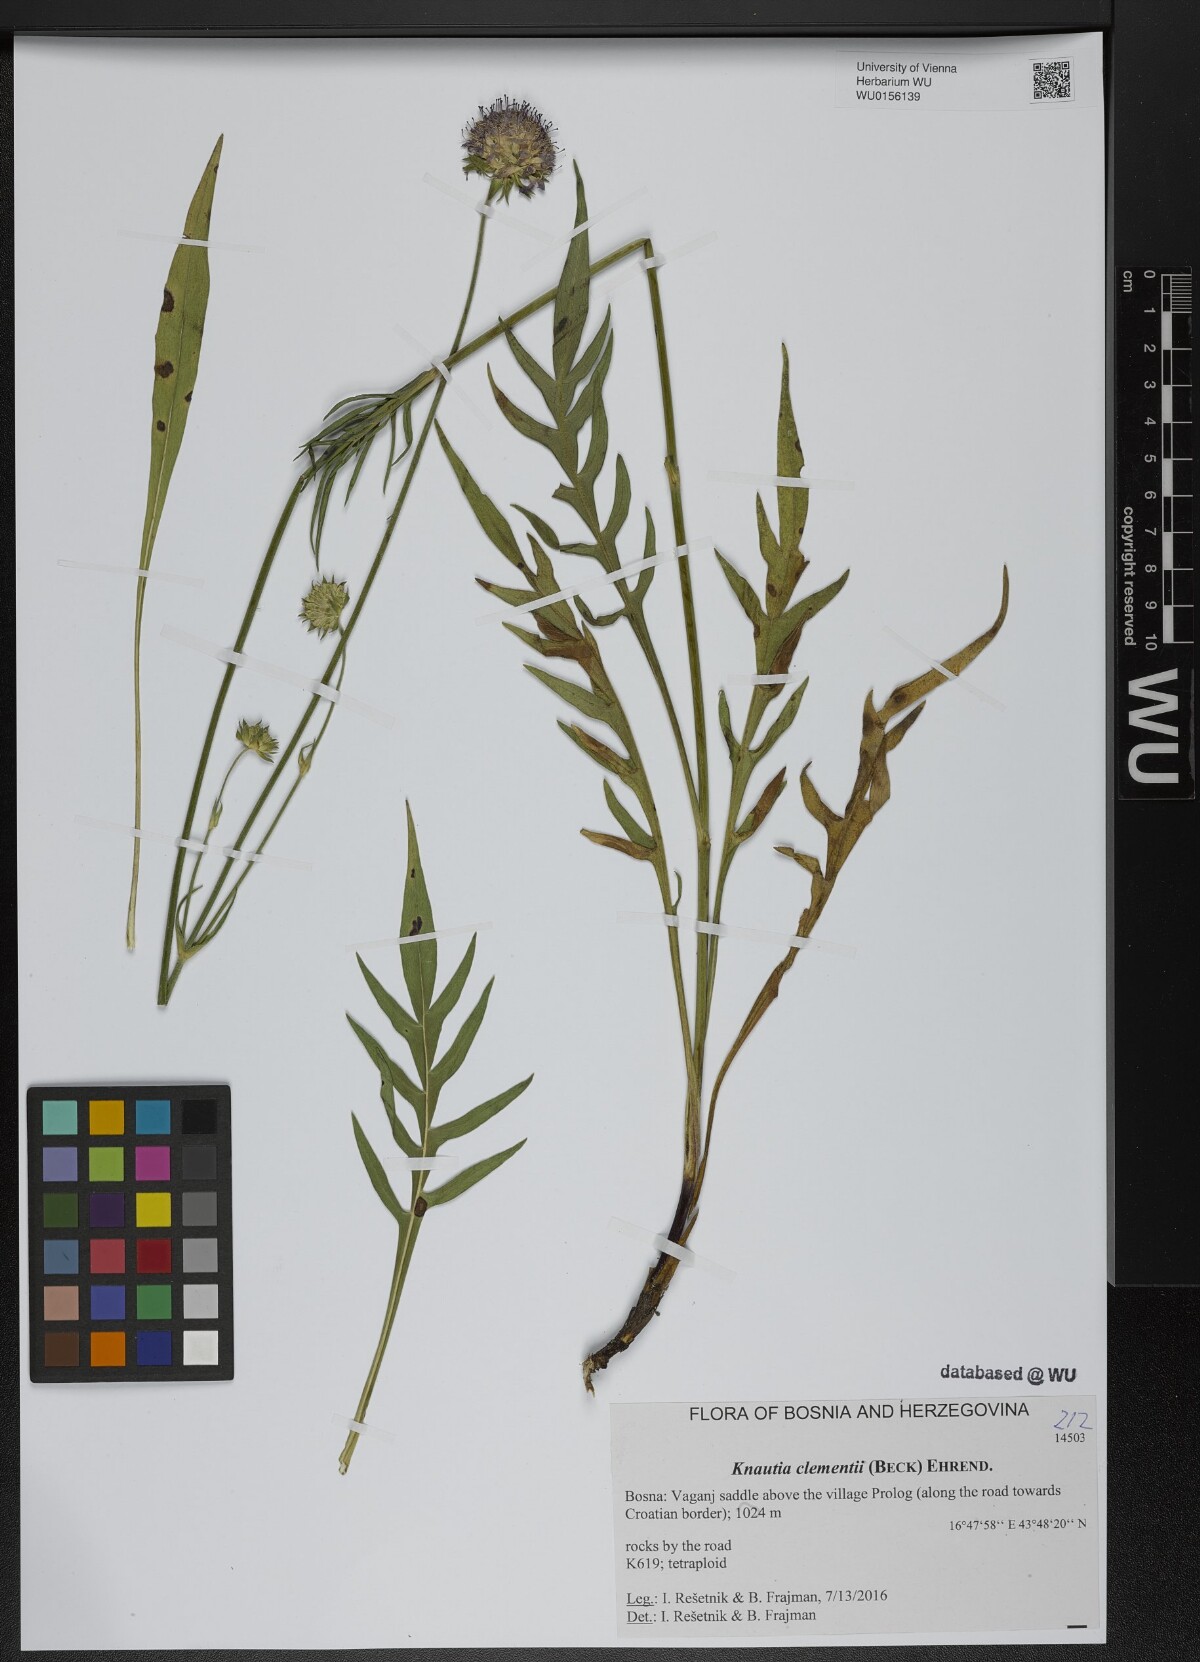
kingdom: Plantae
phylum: Tracheophyta
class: Magnoliopsida
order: Dipsacales
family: Caprifoliaceae
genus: Knautia
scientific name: Knautia clementii
